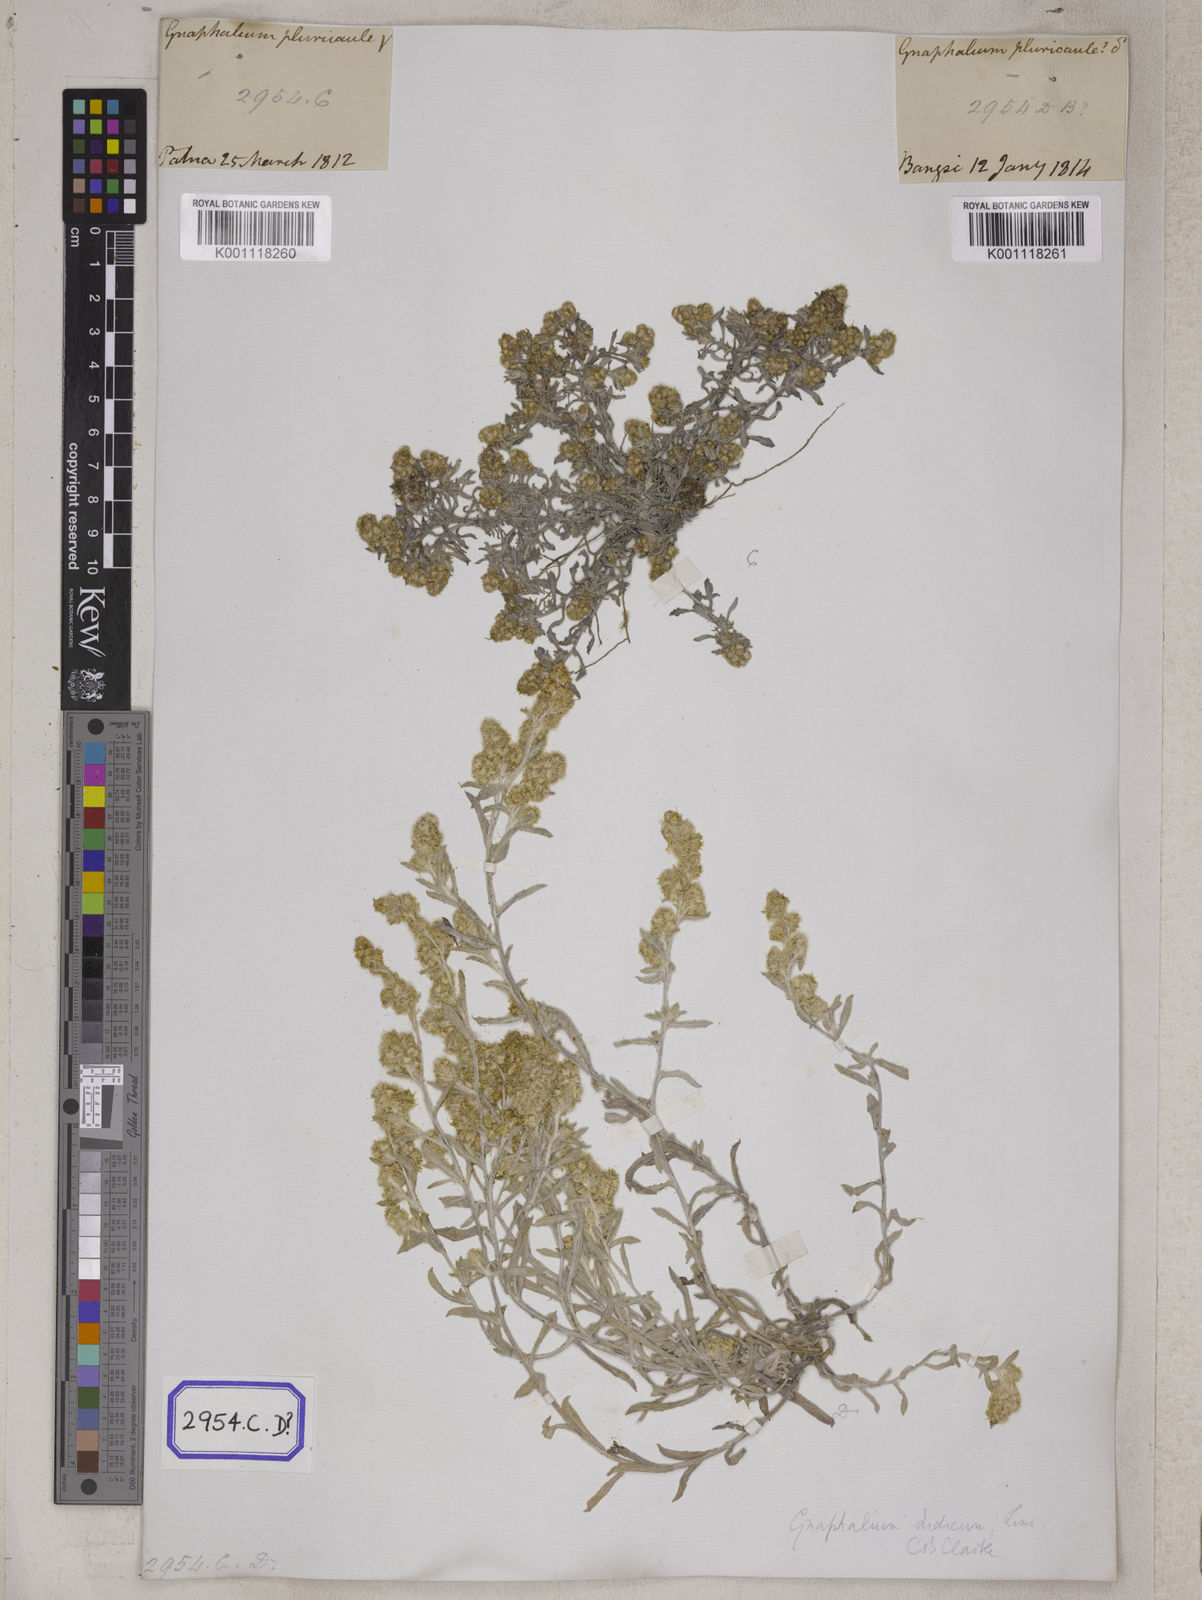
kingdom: Plantae
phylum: Tracheophyta
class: Magnoliopsida
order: Asterales
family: Asteraceae
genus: Helichrysum
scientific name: Helichrysum indicum
